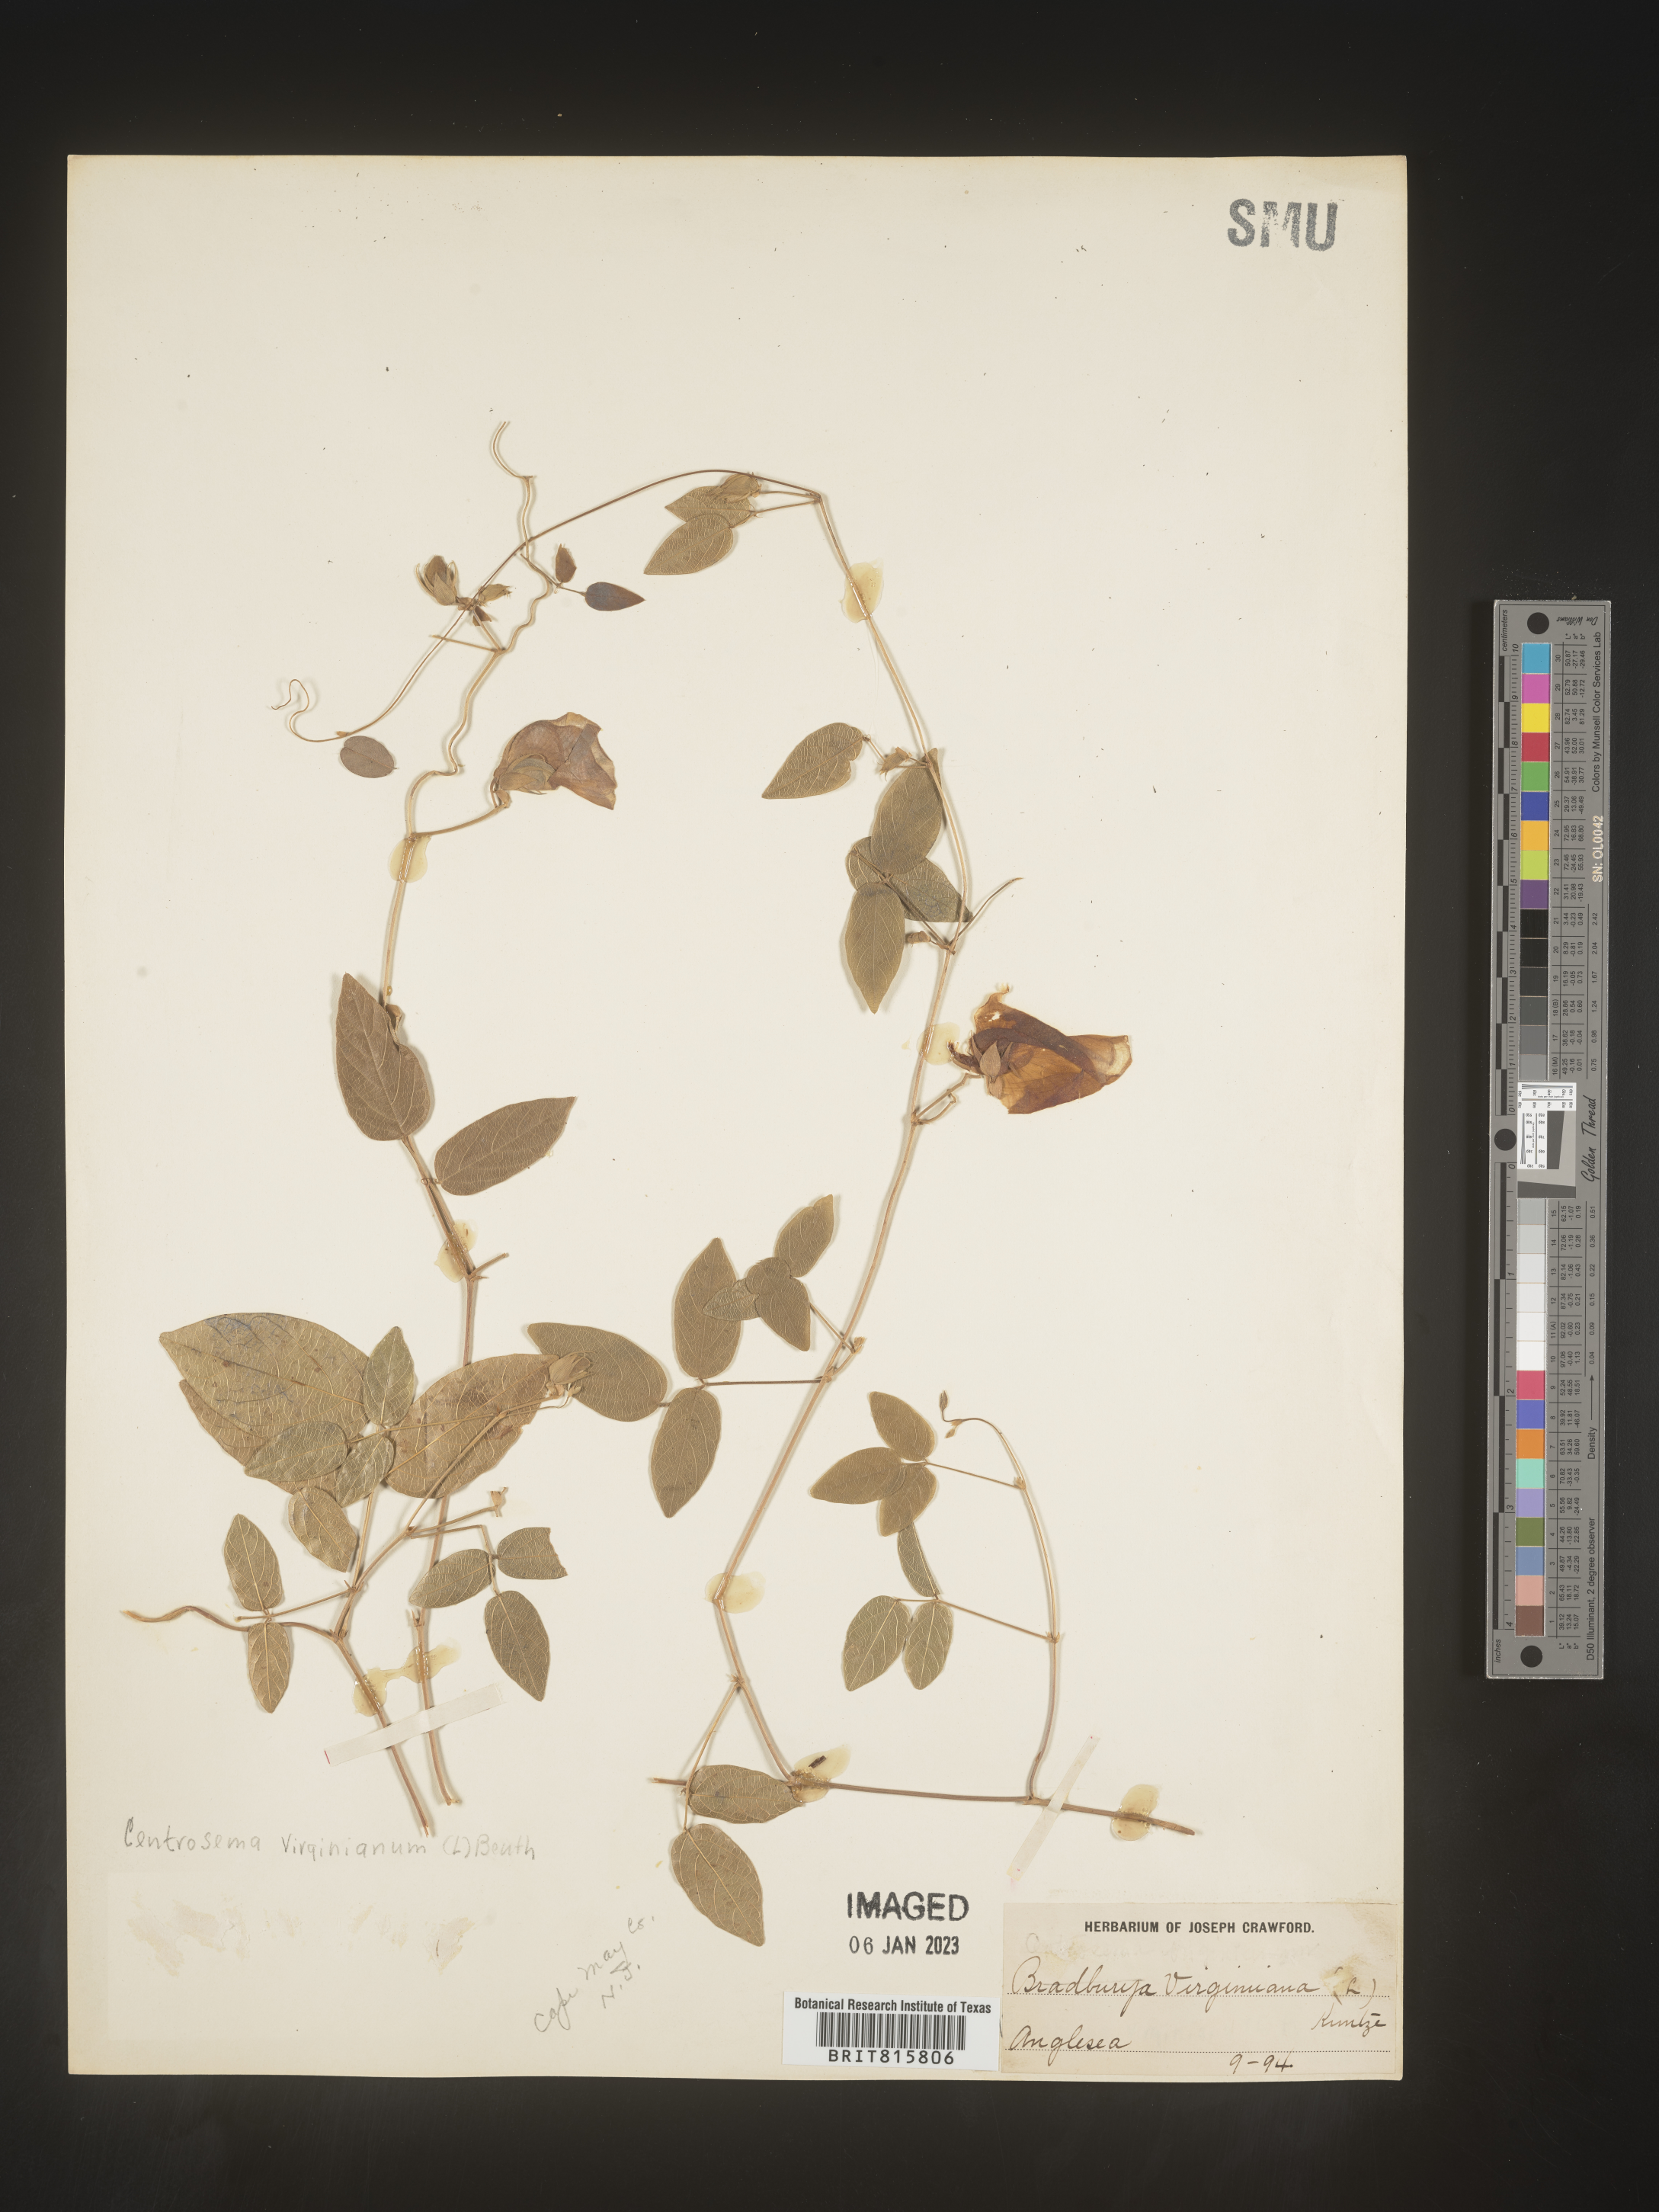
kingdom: Plantae
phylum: Tracheophyta
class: Magnoliopsida
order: Fabales
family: Fabaceae
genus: Centrosema
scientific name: Centrosema virginianum
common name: Butterfly-pea
